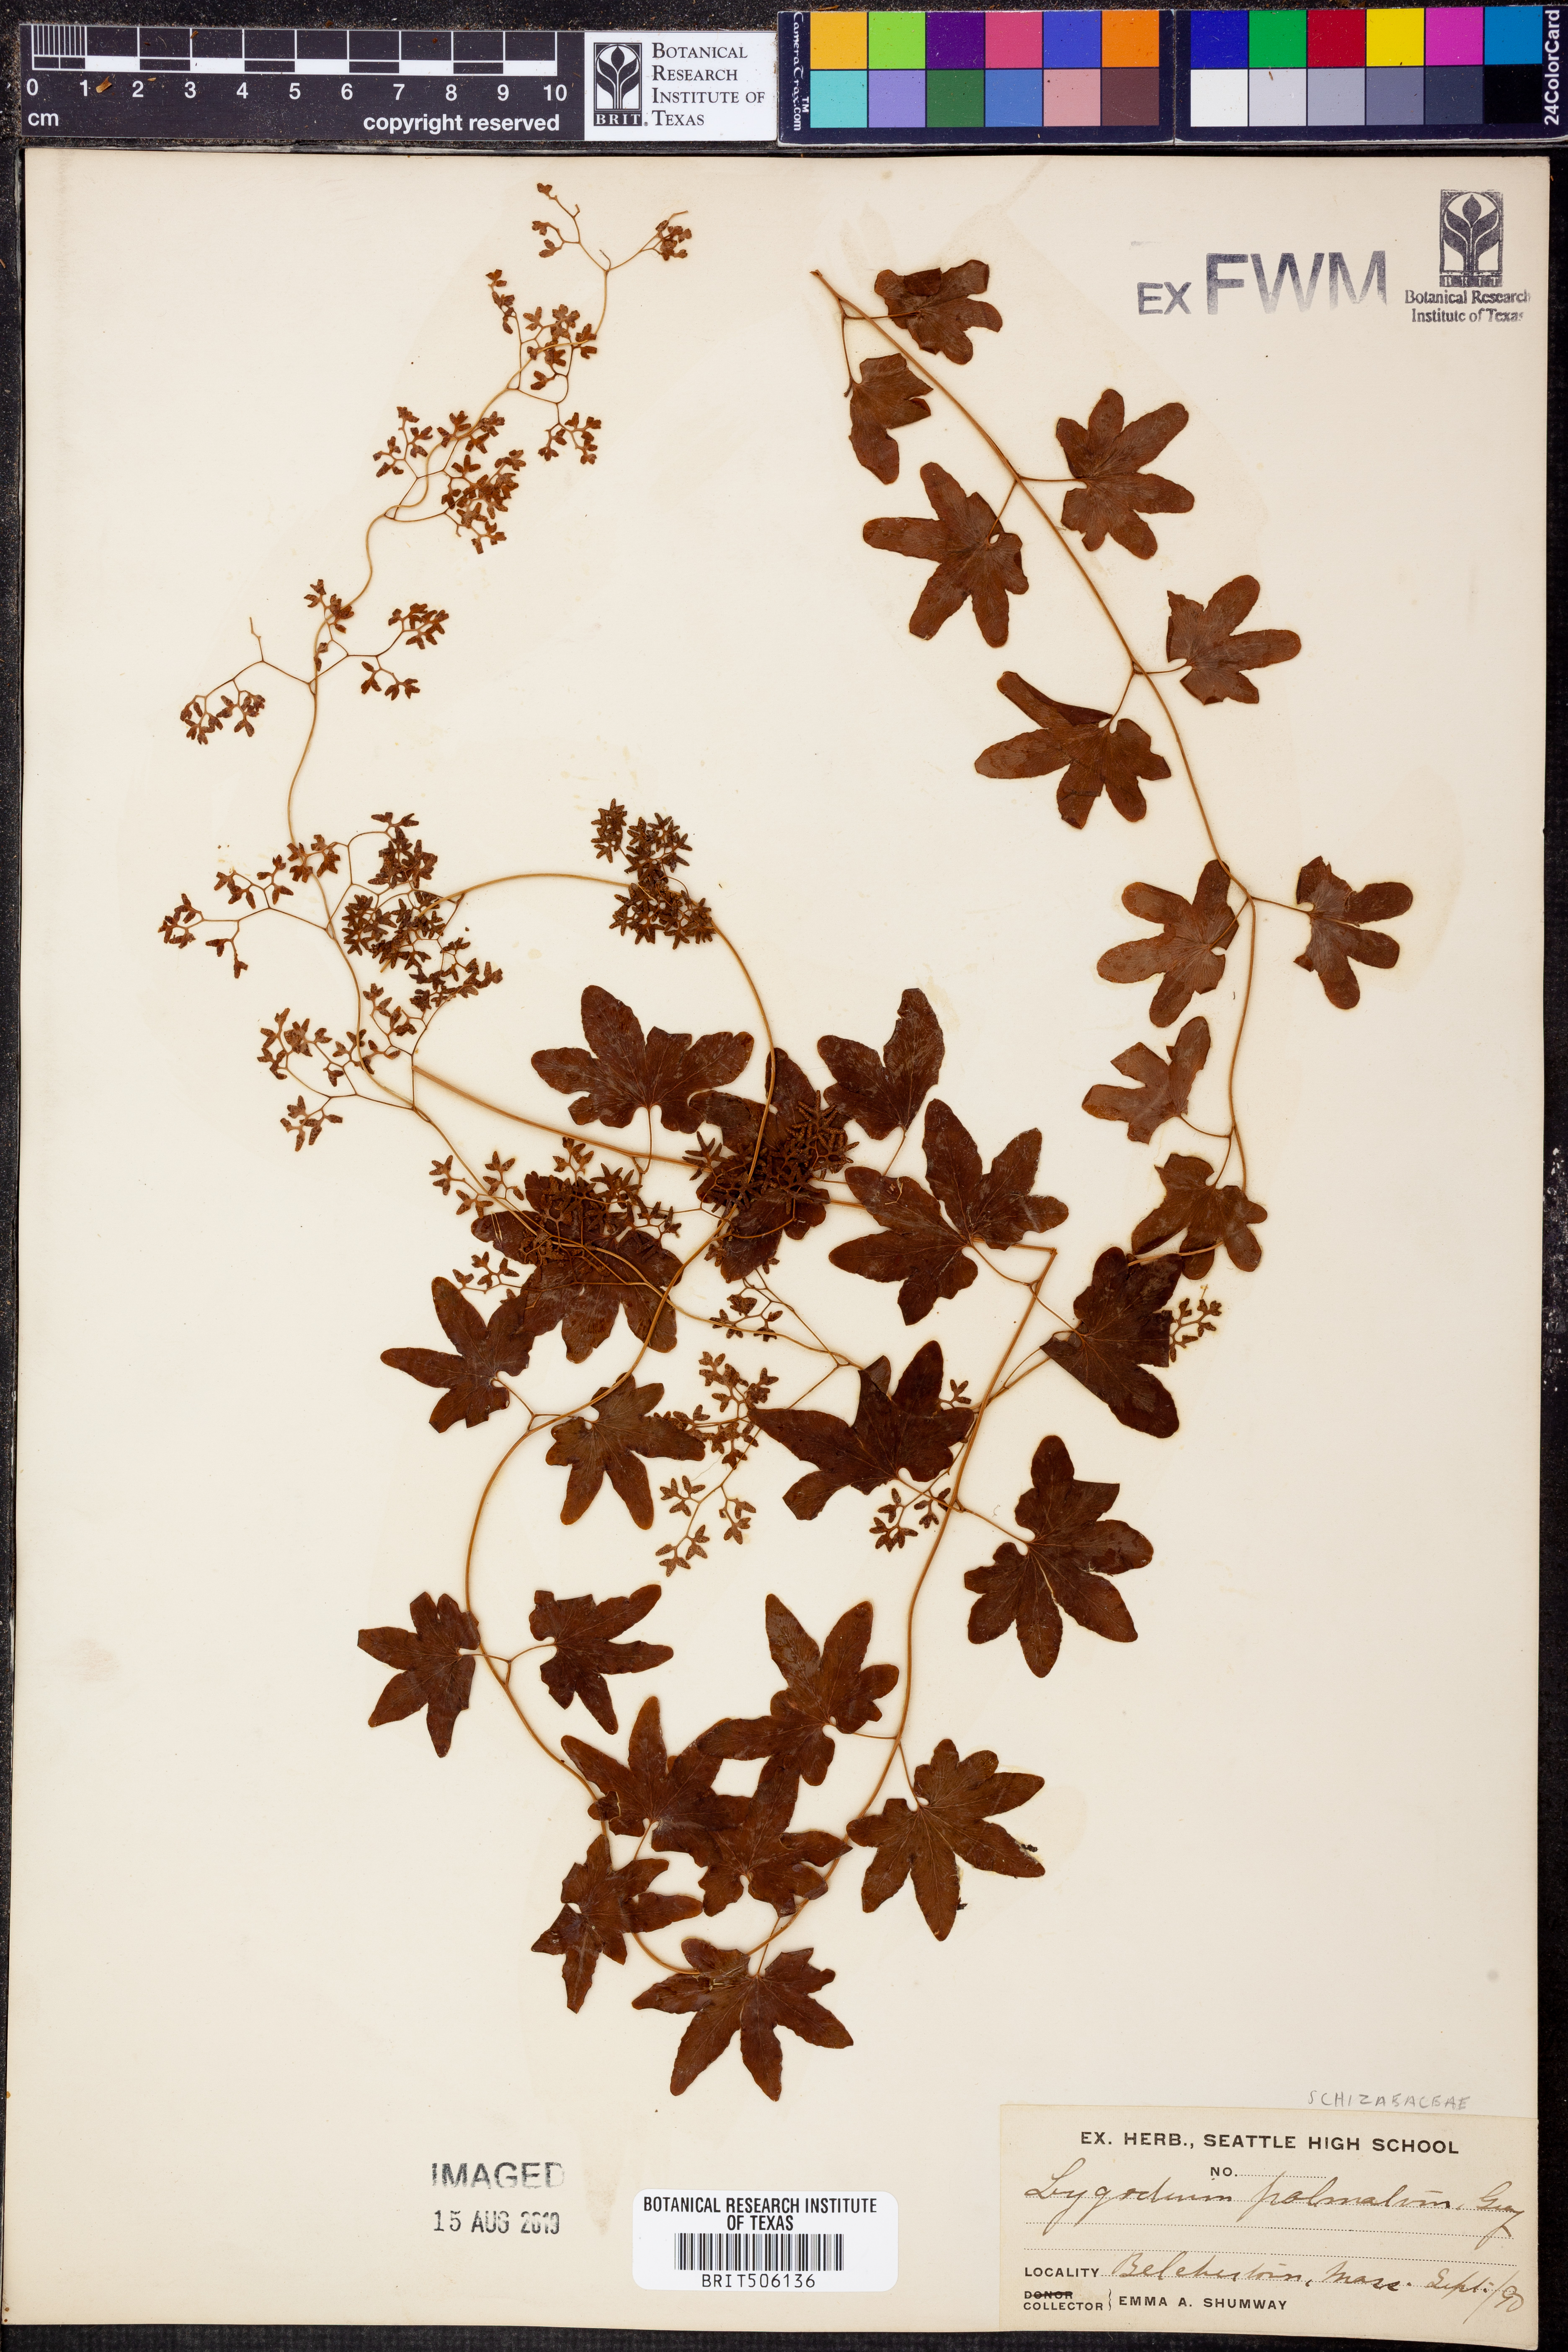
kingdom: Plantae
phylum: Tracheophyta
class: Polypodiopsida
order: Schizaeales
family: Lygodiaceae
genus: Lygodium
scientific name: Lygodium palmatum
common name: American climbing fern
